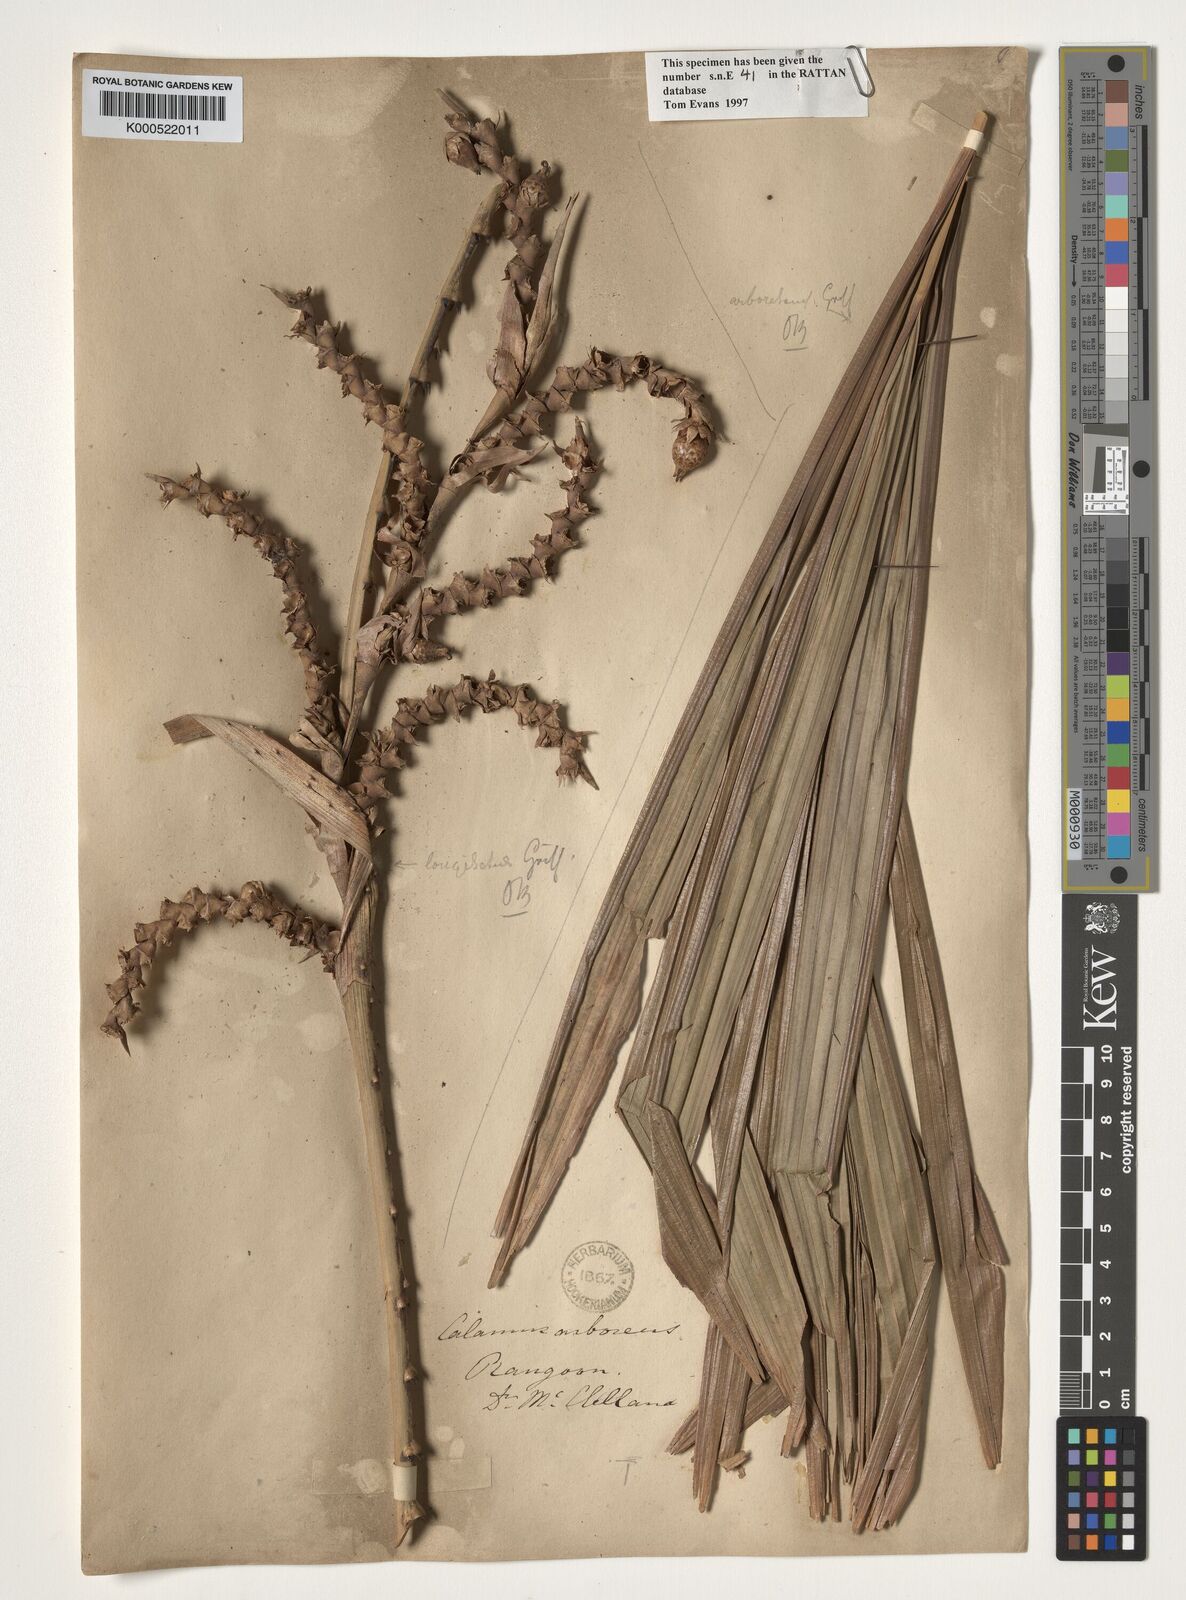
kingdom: Plantae
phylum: Tracheophyta
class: Liliopsida
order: Arecales
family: Arecaceae
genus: Calamus
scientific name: Calamus longisetus
